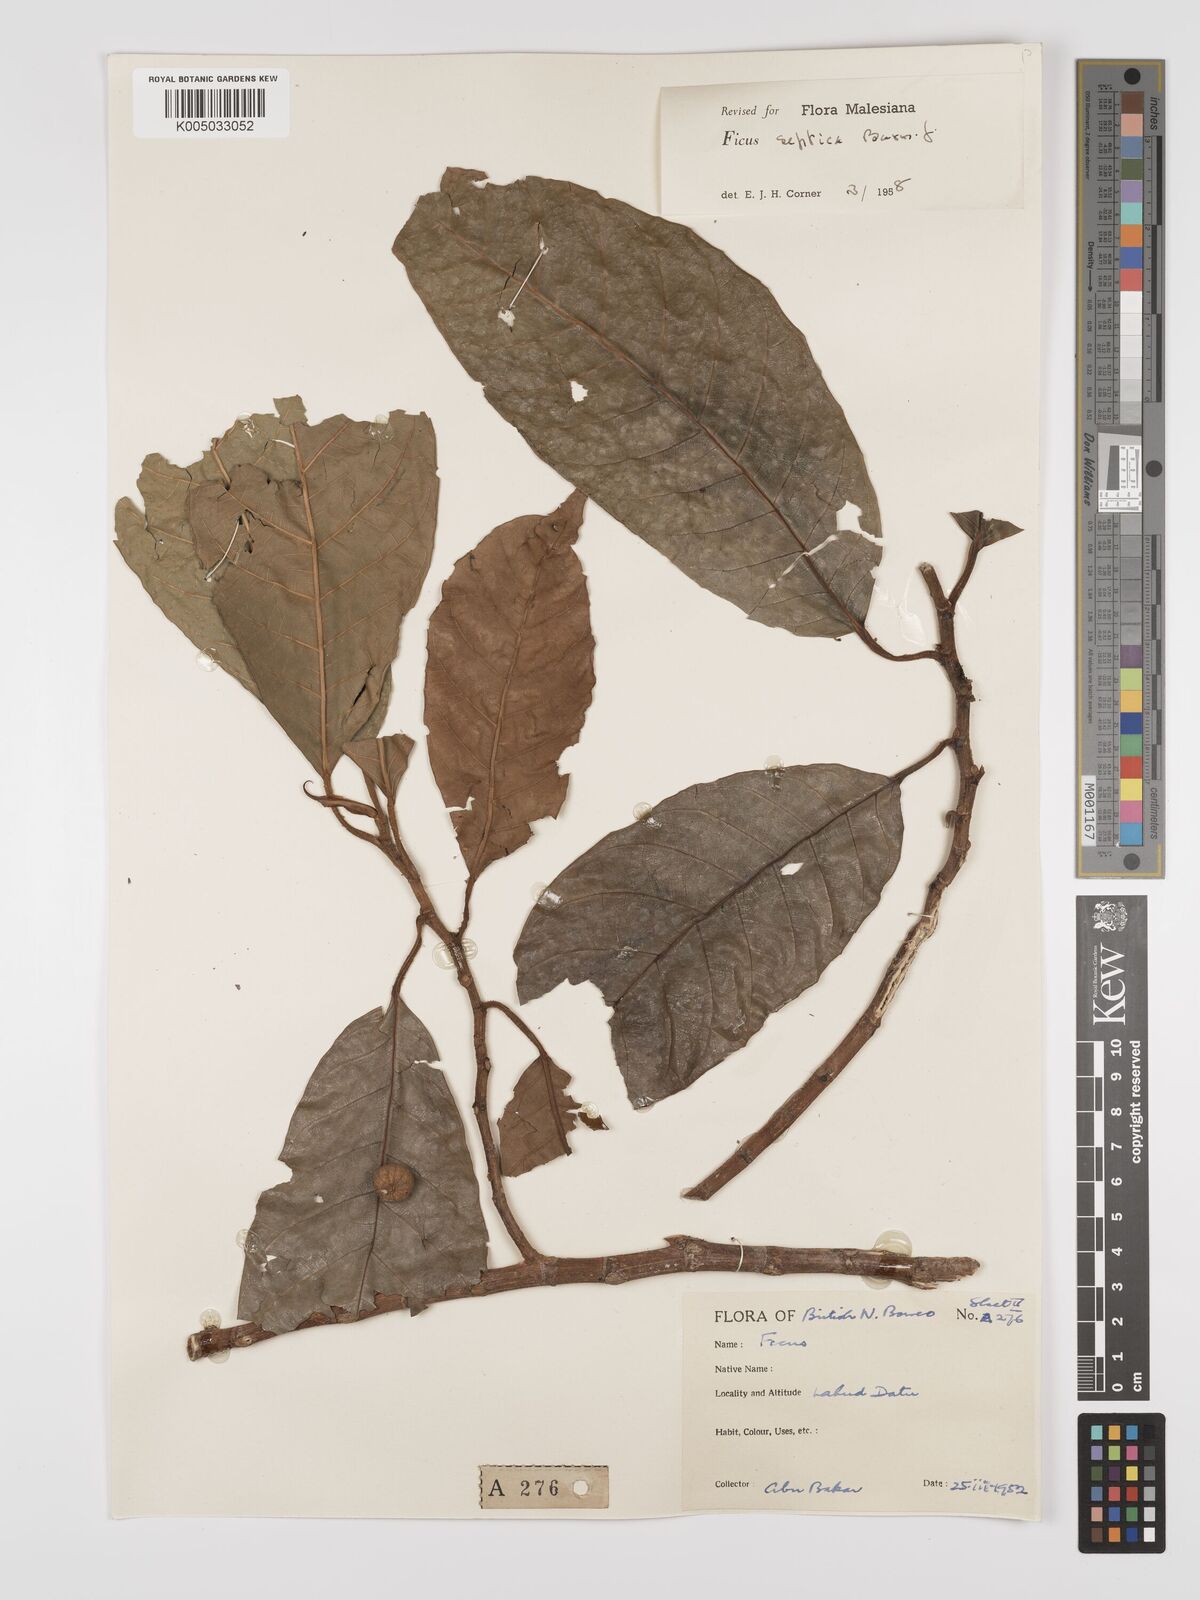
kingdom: Plantae
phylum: Tracheophyta
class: Magnoliopsida
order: Rosales
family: Moraceae
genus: Ficus
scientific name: Ficus septica
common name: Septic fig
